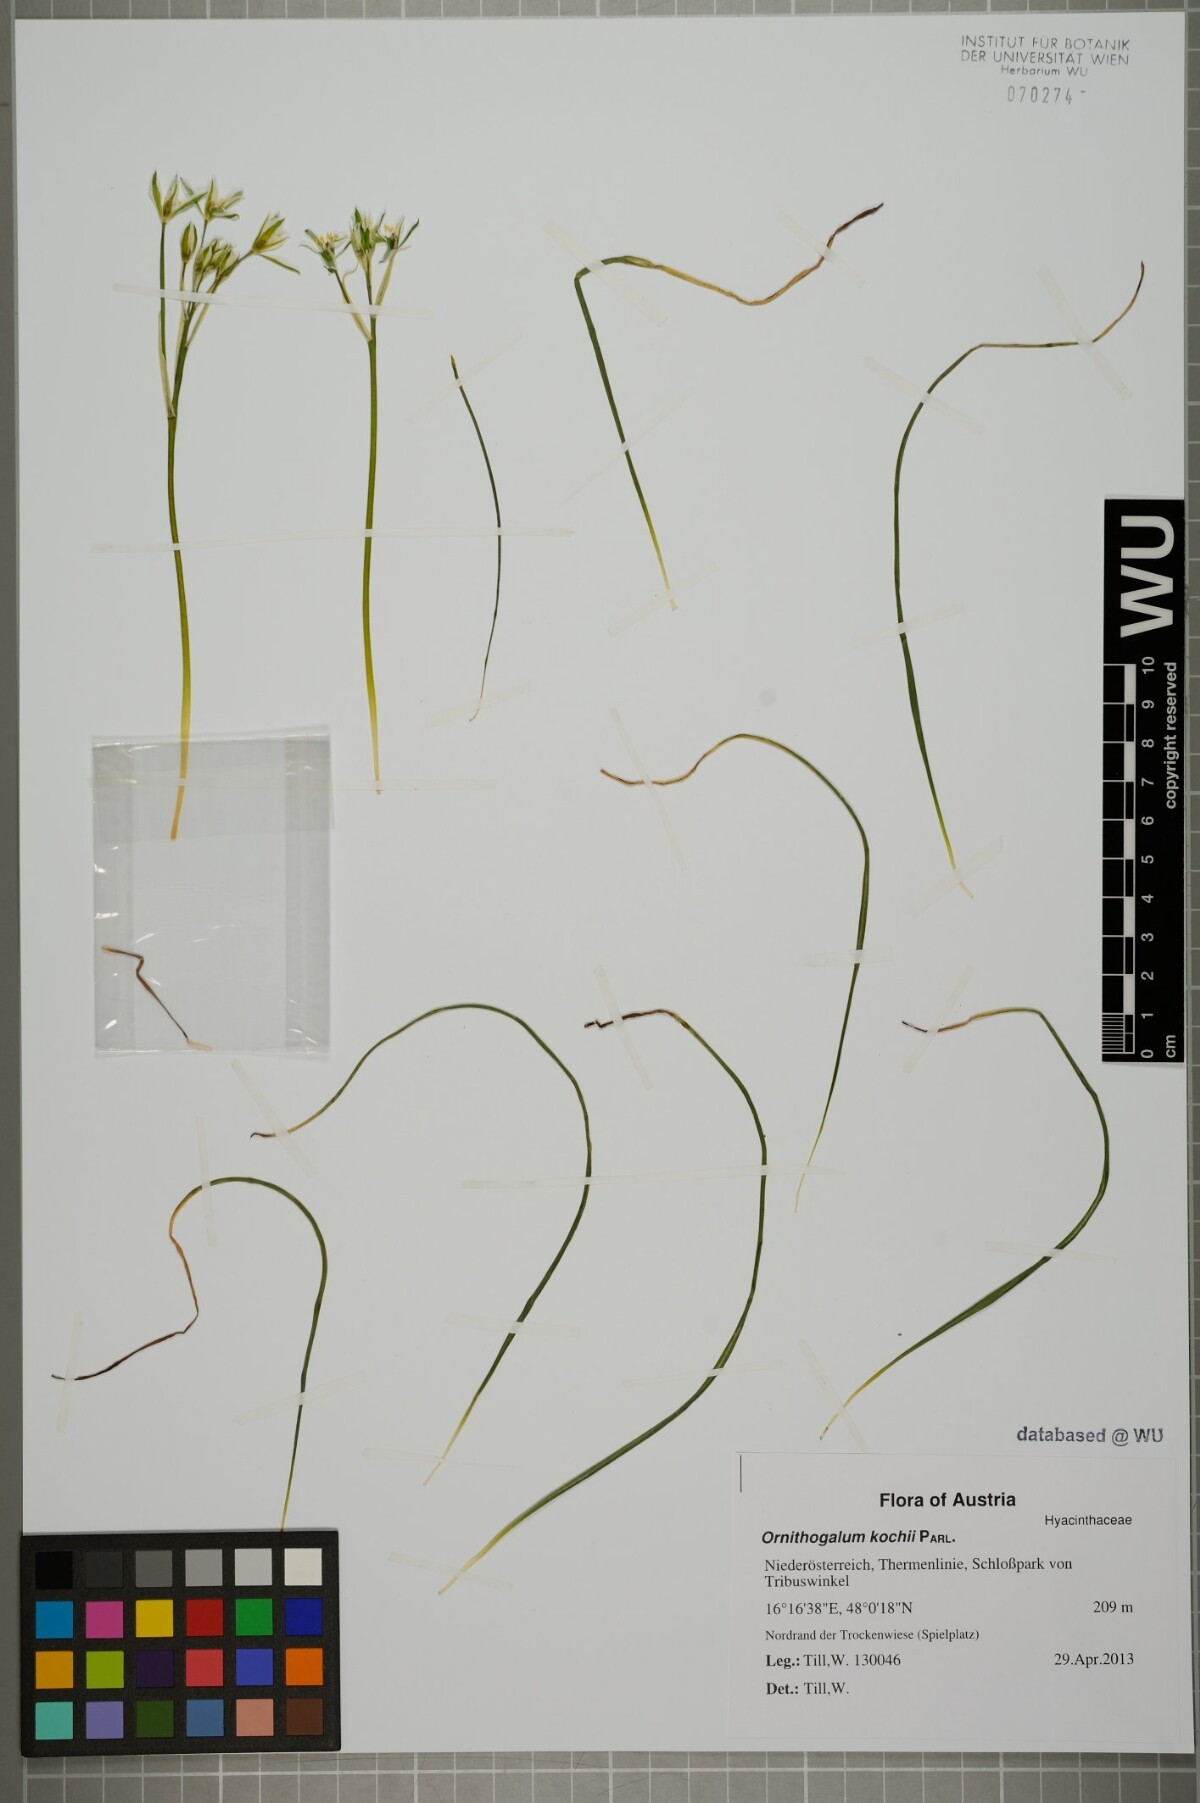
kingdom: Plantae
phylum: Tracheophyta
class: Liliopsida
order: Asparagales
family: Asparagaceae
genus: Ornithogalum
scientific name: Ornithogalum orthophyllum
